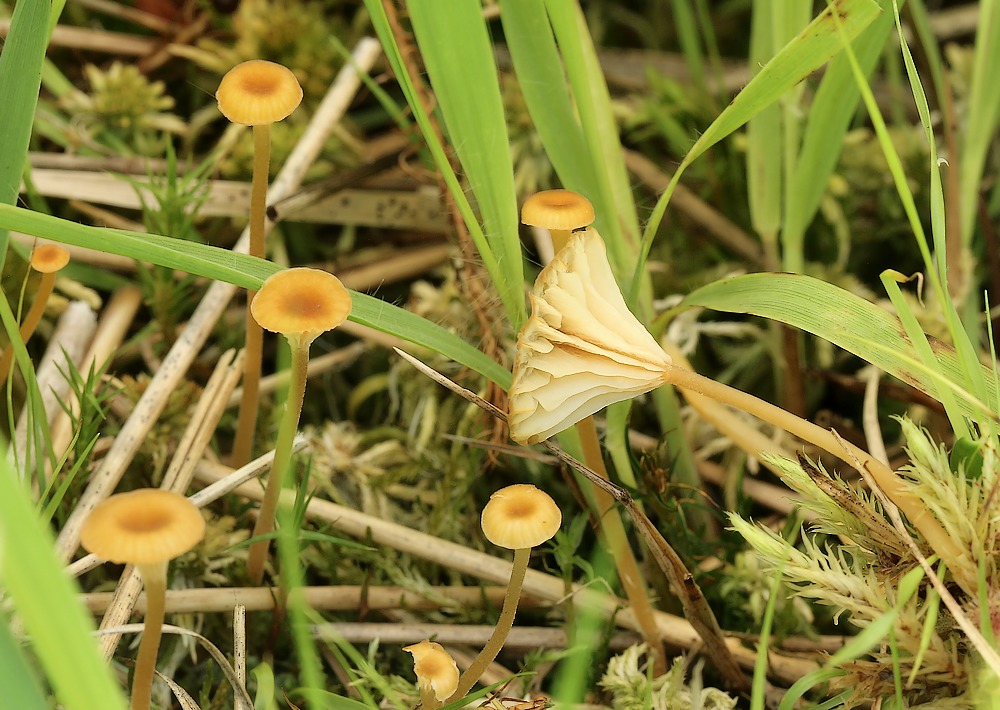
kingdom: Fungi
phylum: Basidiomycota
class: Agaricomycetes
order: Hymenochaetales
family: Rickenellaceae
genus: Rickenella
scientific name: Rickenella fibula
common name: orange mosnavlehat
